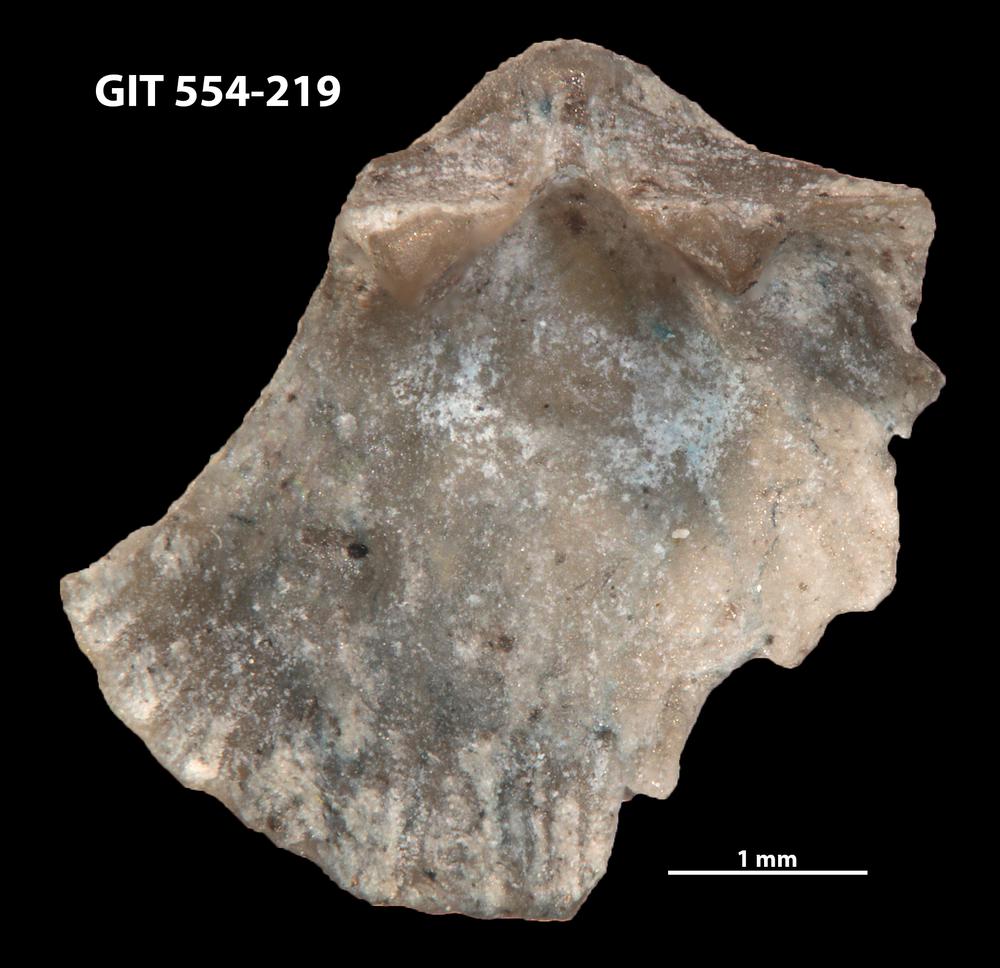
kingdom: Animalia
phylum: Brachiopoda
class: Rhynchonellata
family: Dalmanellidae
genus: Ravozetina
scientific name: Ravozetina
